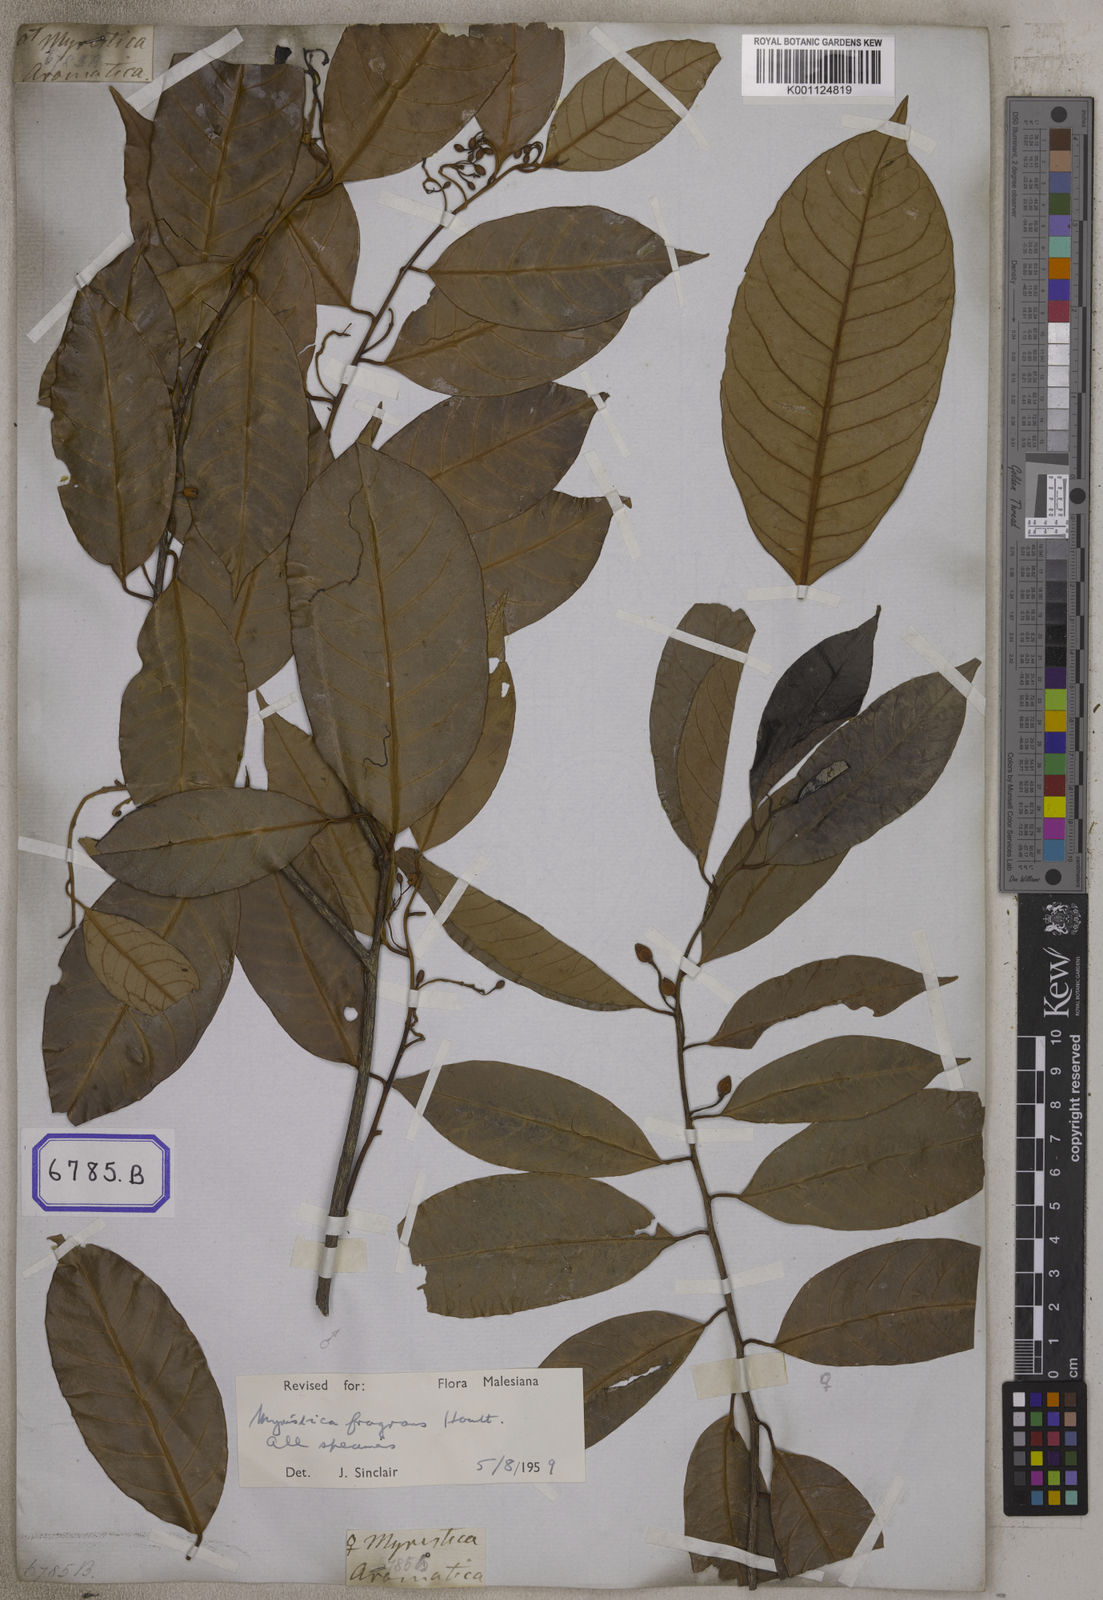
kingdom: Plantae
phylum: Tracheophyta
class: Magnoliopsida
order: Magnoliales
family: Myristicaceae
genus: Myristica
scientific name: Myristica fragrans
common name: Nutmeg
